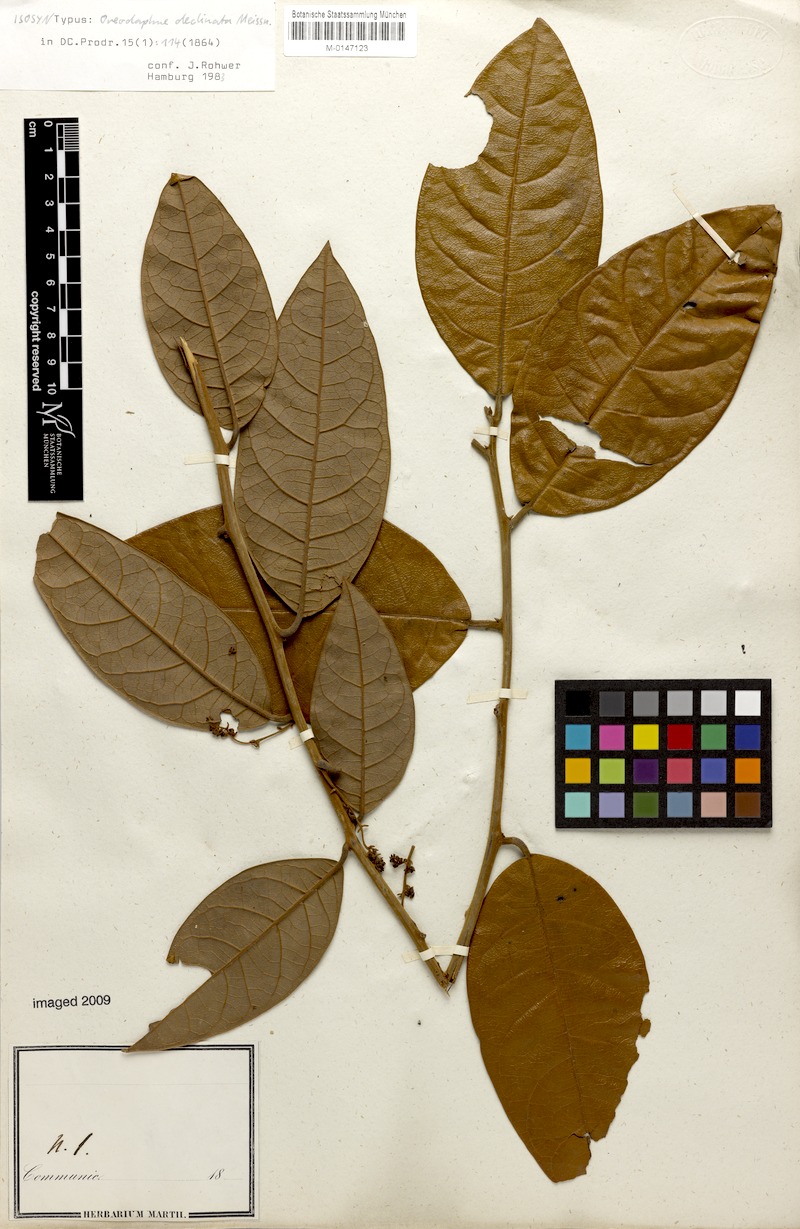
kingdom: Plantae
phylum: Tracheophyta
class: Magnoliopsida
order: Laurales
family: Lauraceae
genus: Ocotea
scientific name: Ocotea deflexa
